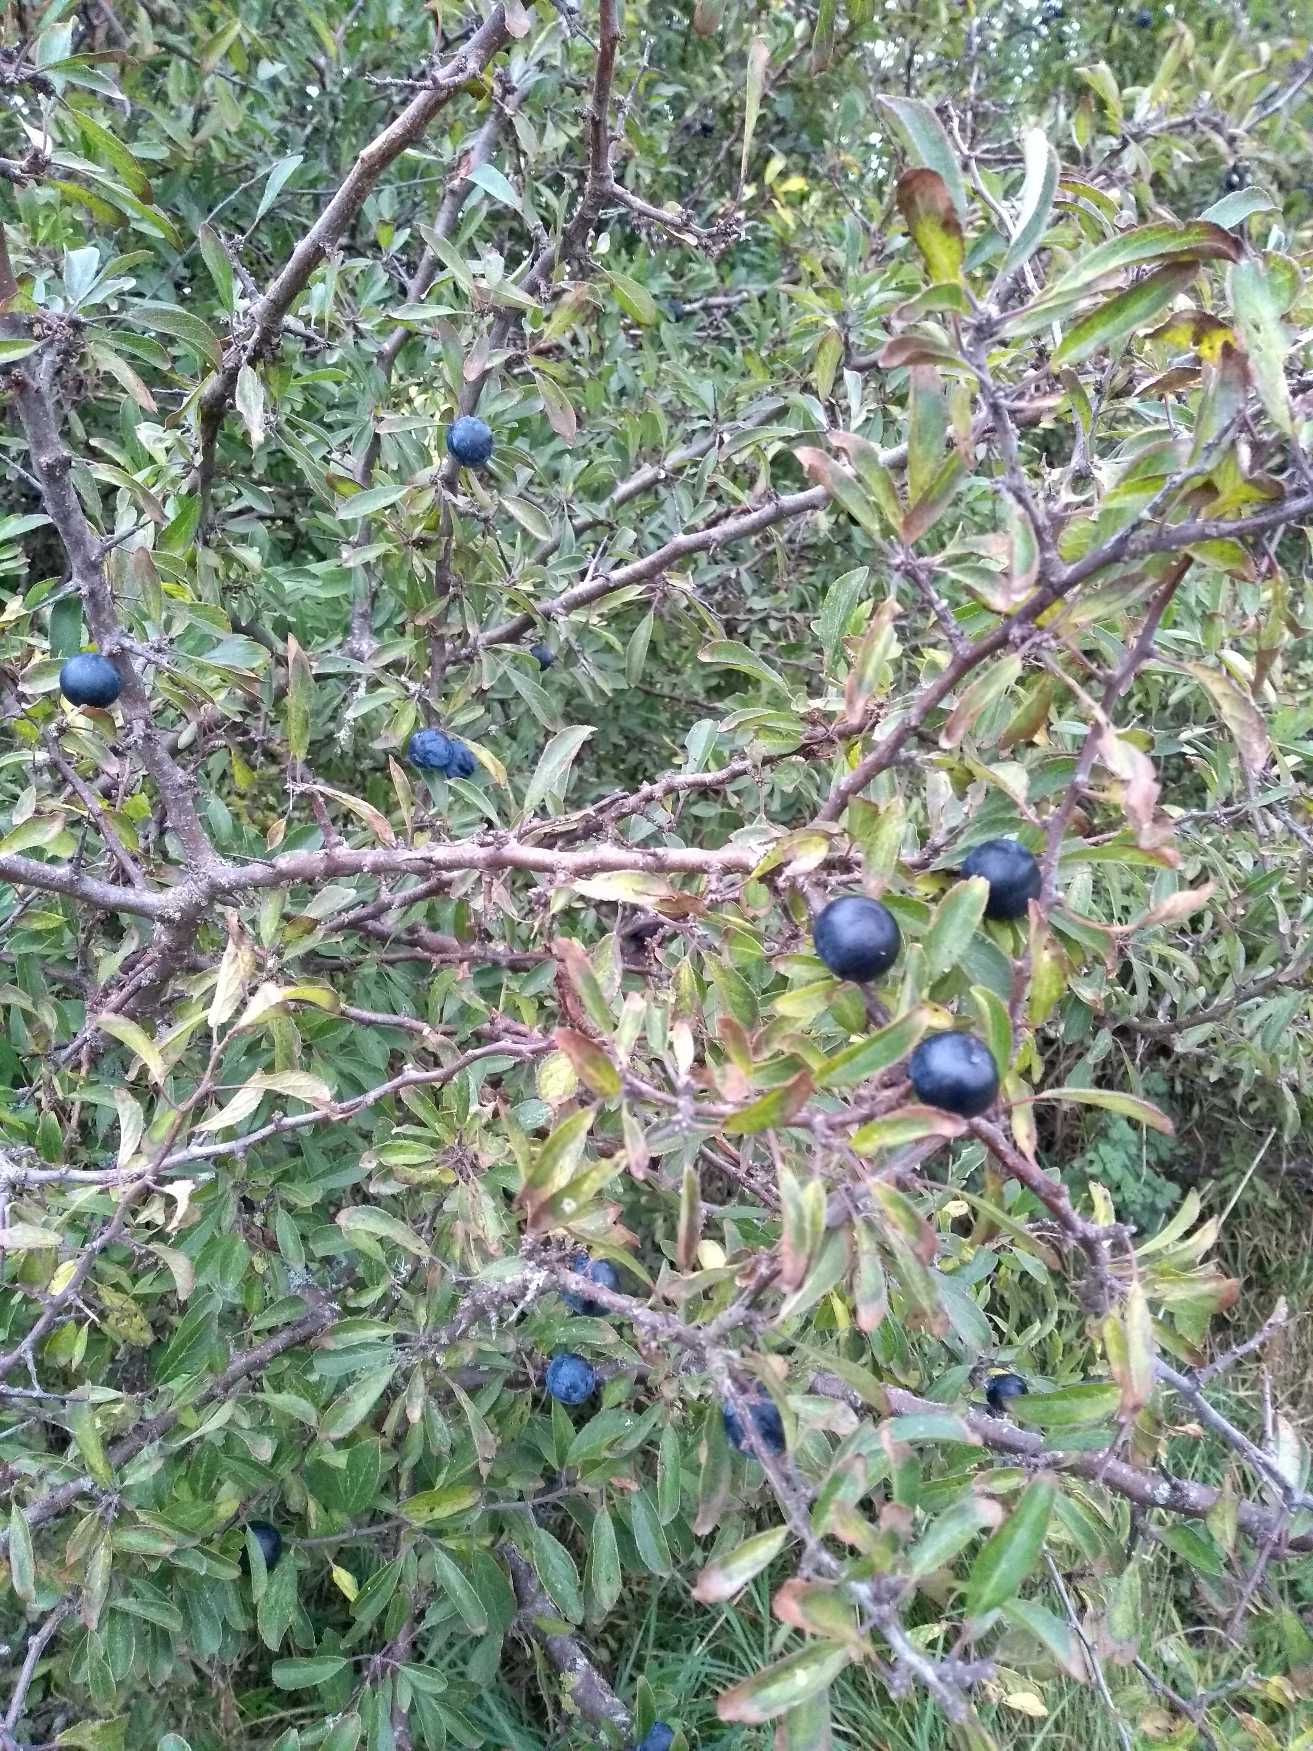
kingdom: Plantae
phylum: Tracheophyta
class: Magnoliopsida
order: Rosales
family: Rosaceae
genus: Prunus
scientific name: Prunus spinosa
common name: Slåen
